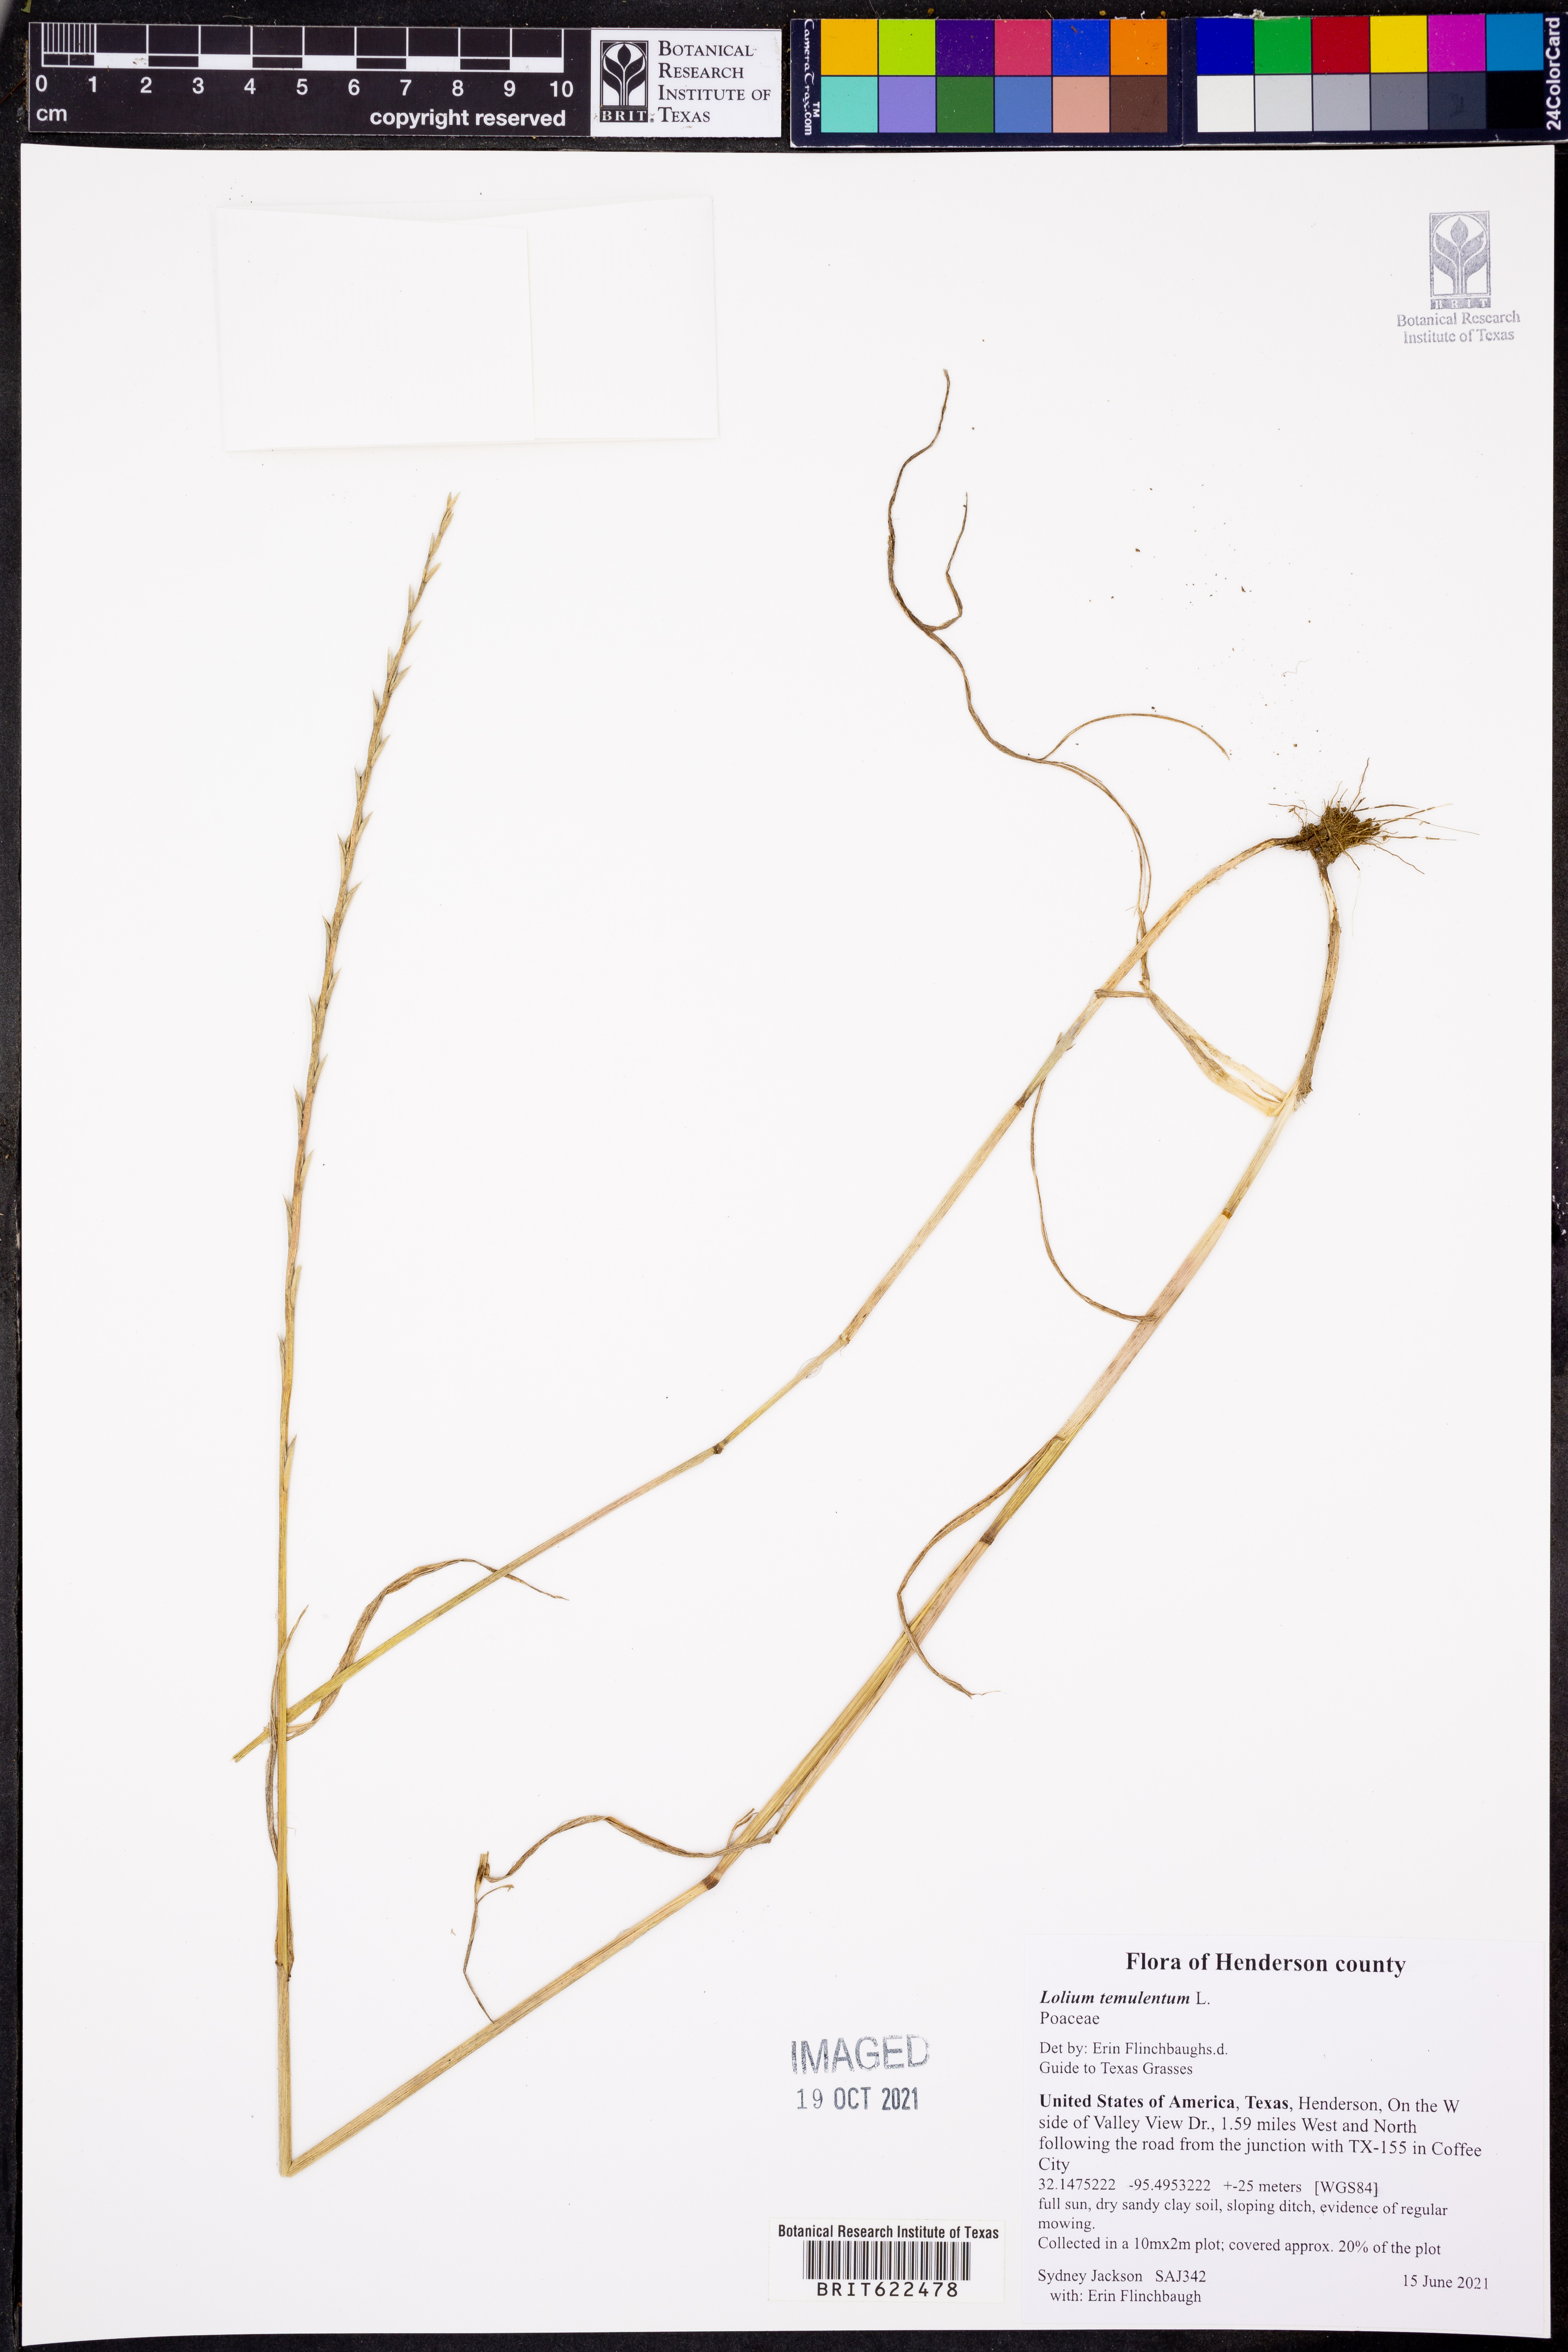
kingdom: Plantae
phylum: Tracheophyta
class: Liliopsida
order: Poales
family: Poaceae
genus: Lolium
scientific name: Lolium temulentum
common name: Darnel
